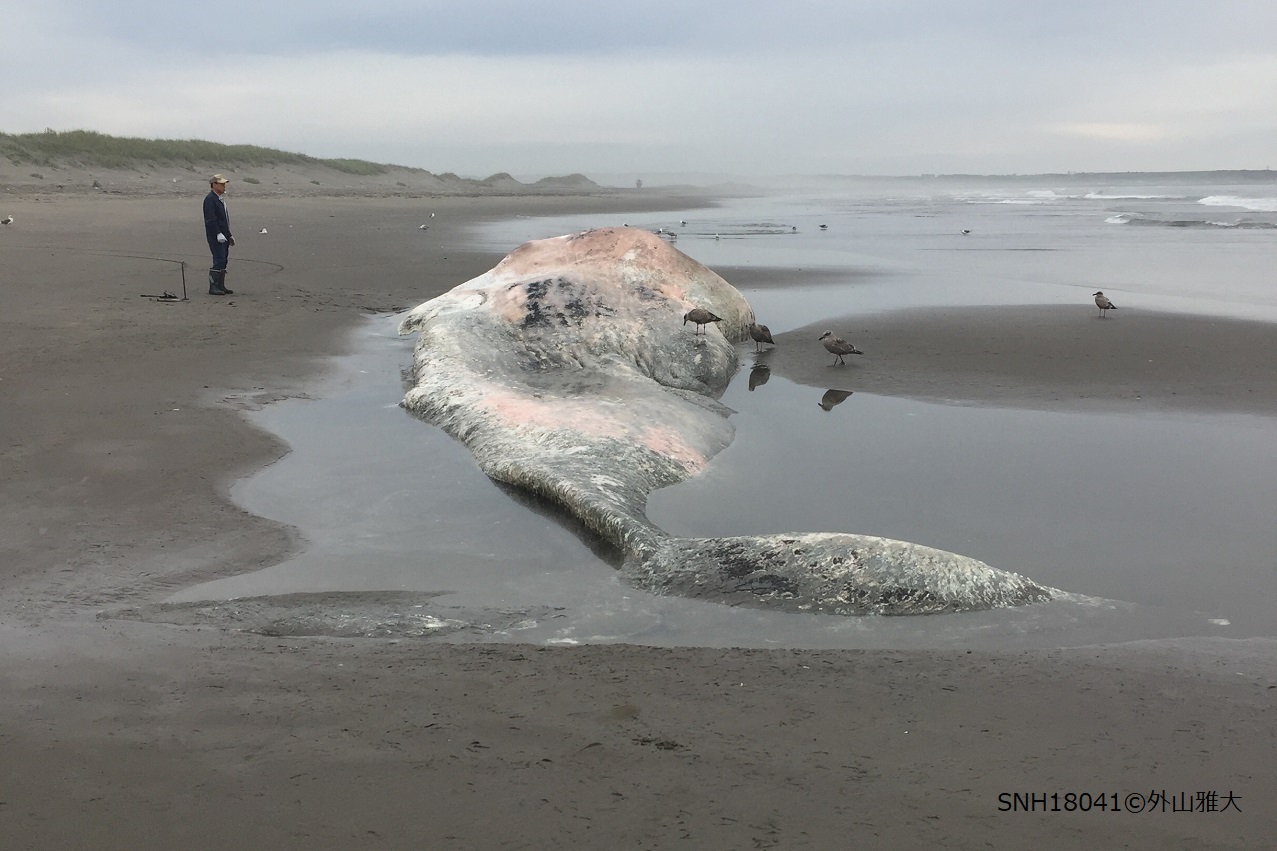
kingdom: Animalia
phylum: Chordata
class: Mammalia
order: Cetacea
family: Physeteridae
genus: Physeter
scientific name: Physeter macrocephalus
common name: Sperm whale
